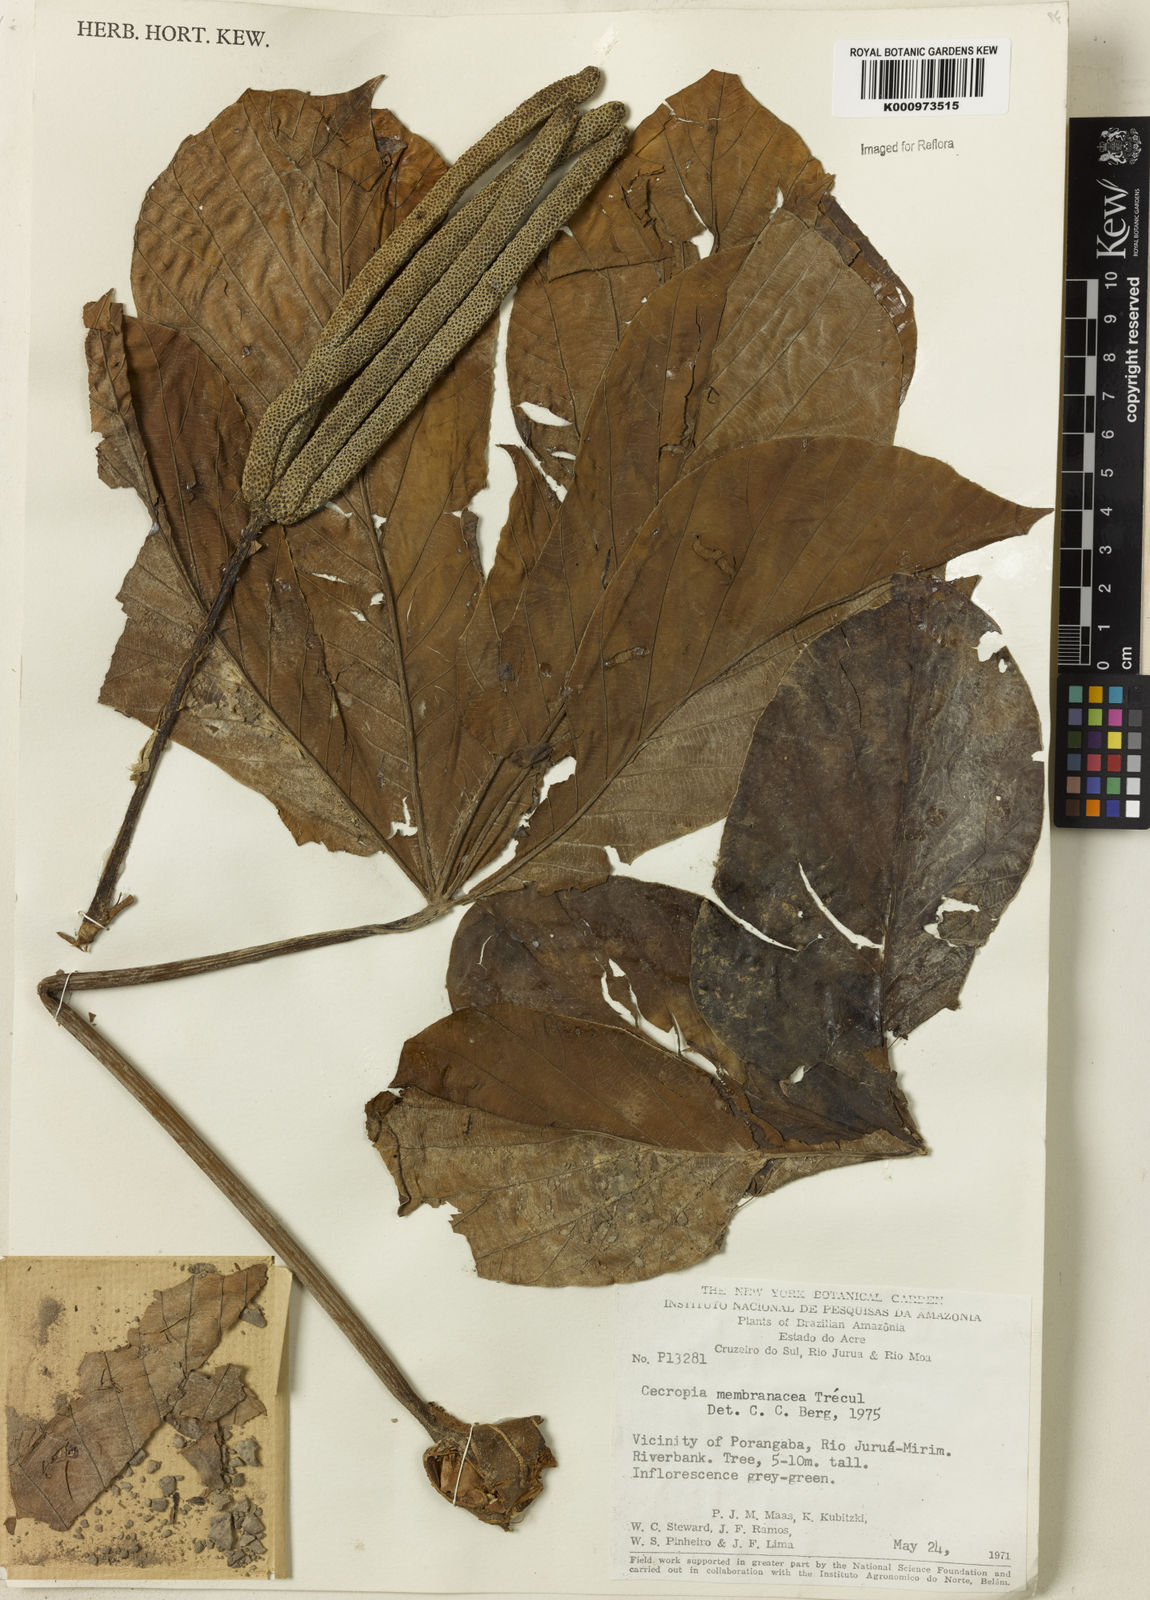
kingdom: Plantae
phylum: Tracheophyta
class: Magnoliopsida
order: Rosales
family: Urticaceae
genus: Cecropia
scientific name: Cecropia
